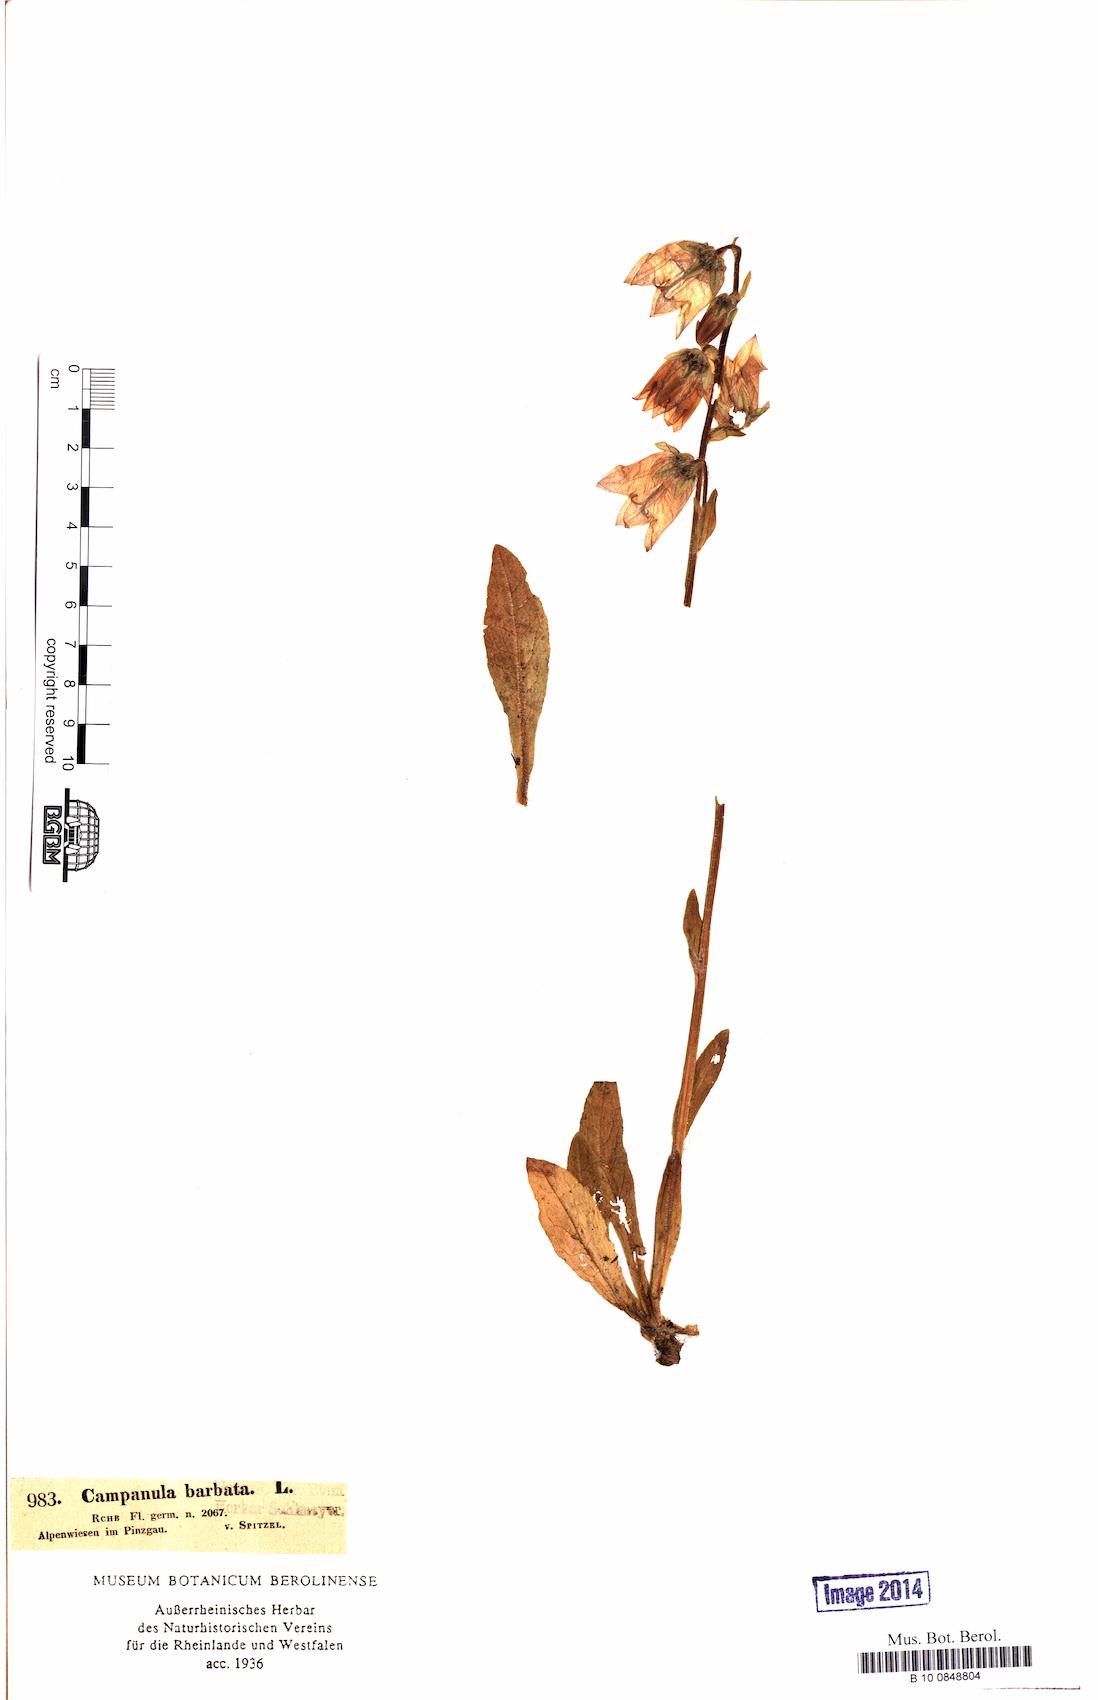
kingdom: Plantae
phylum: Tracheophyta
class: Magnoliopsida
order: Asterales
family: Campanulaceae
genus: Campanula
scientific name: Campanula barbata
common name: Bearded bellflower
